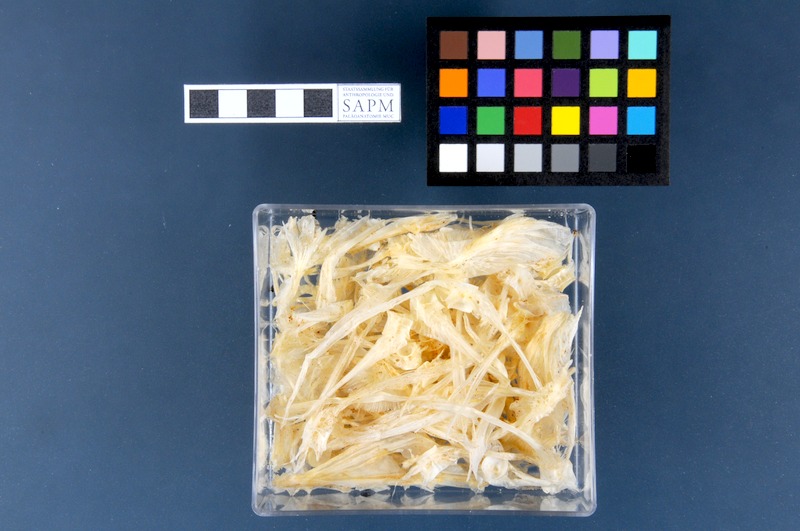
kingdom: Animalia
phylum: Chordata
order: Scorpaeniformes
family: Cyclopteridae
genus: Cyclopterus
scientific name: Cyclopterus lumpus
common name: Lumpsucker
